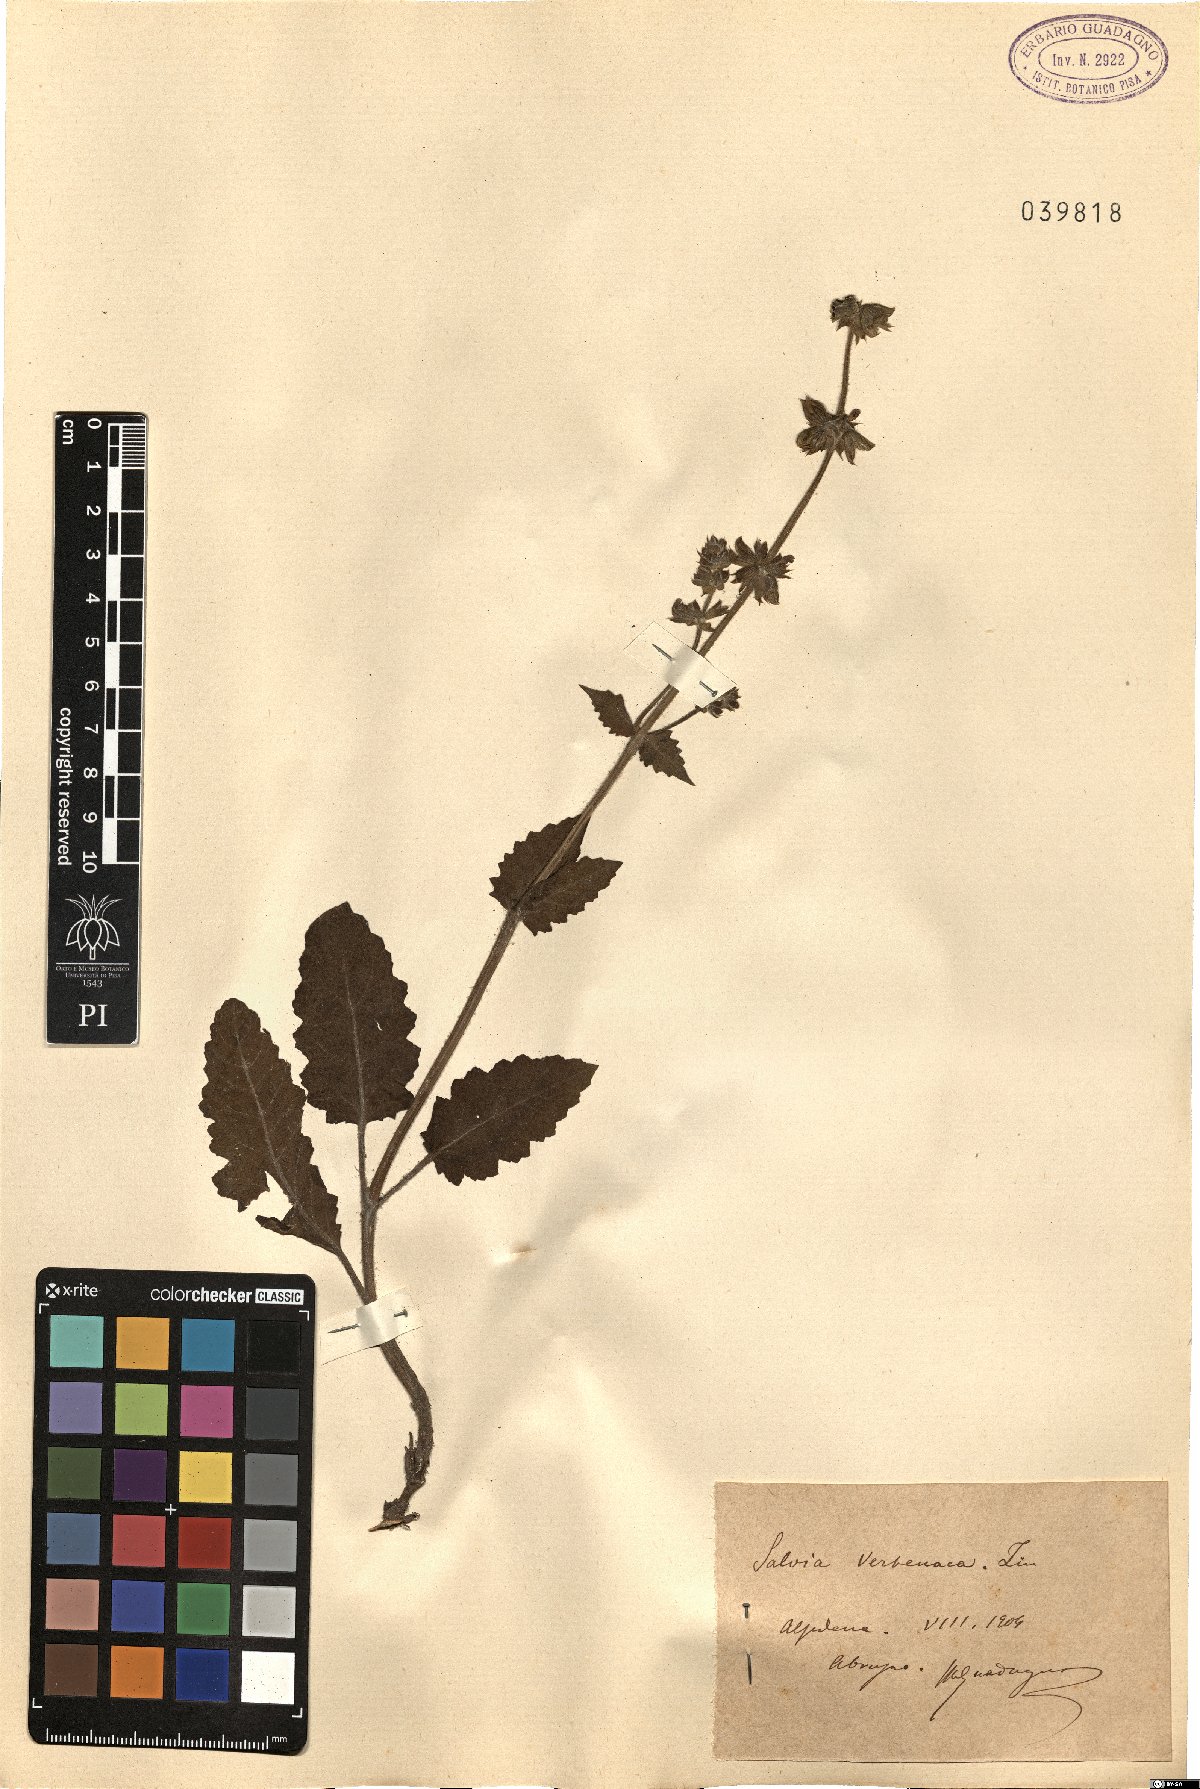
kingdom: Plantae
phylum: Tracheophyta
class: Magnoliopsida
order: Lamiales
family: Lamiaceae
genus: Salvia
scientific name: Salvia verbenaca
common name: Wild clary
